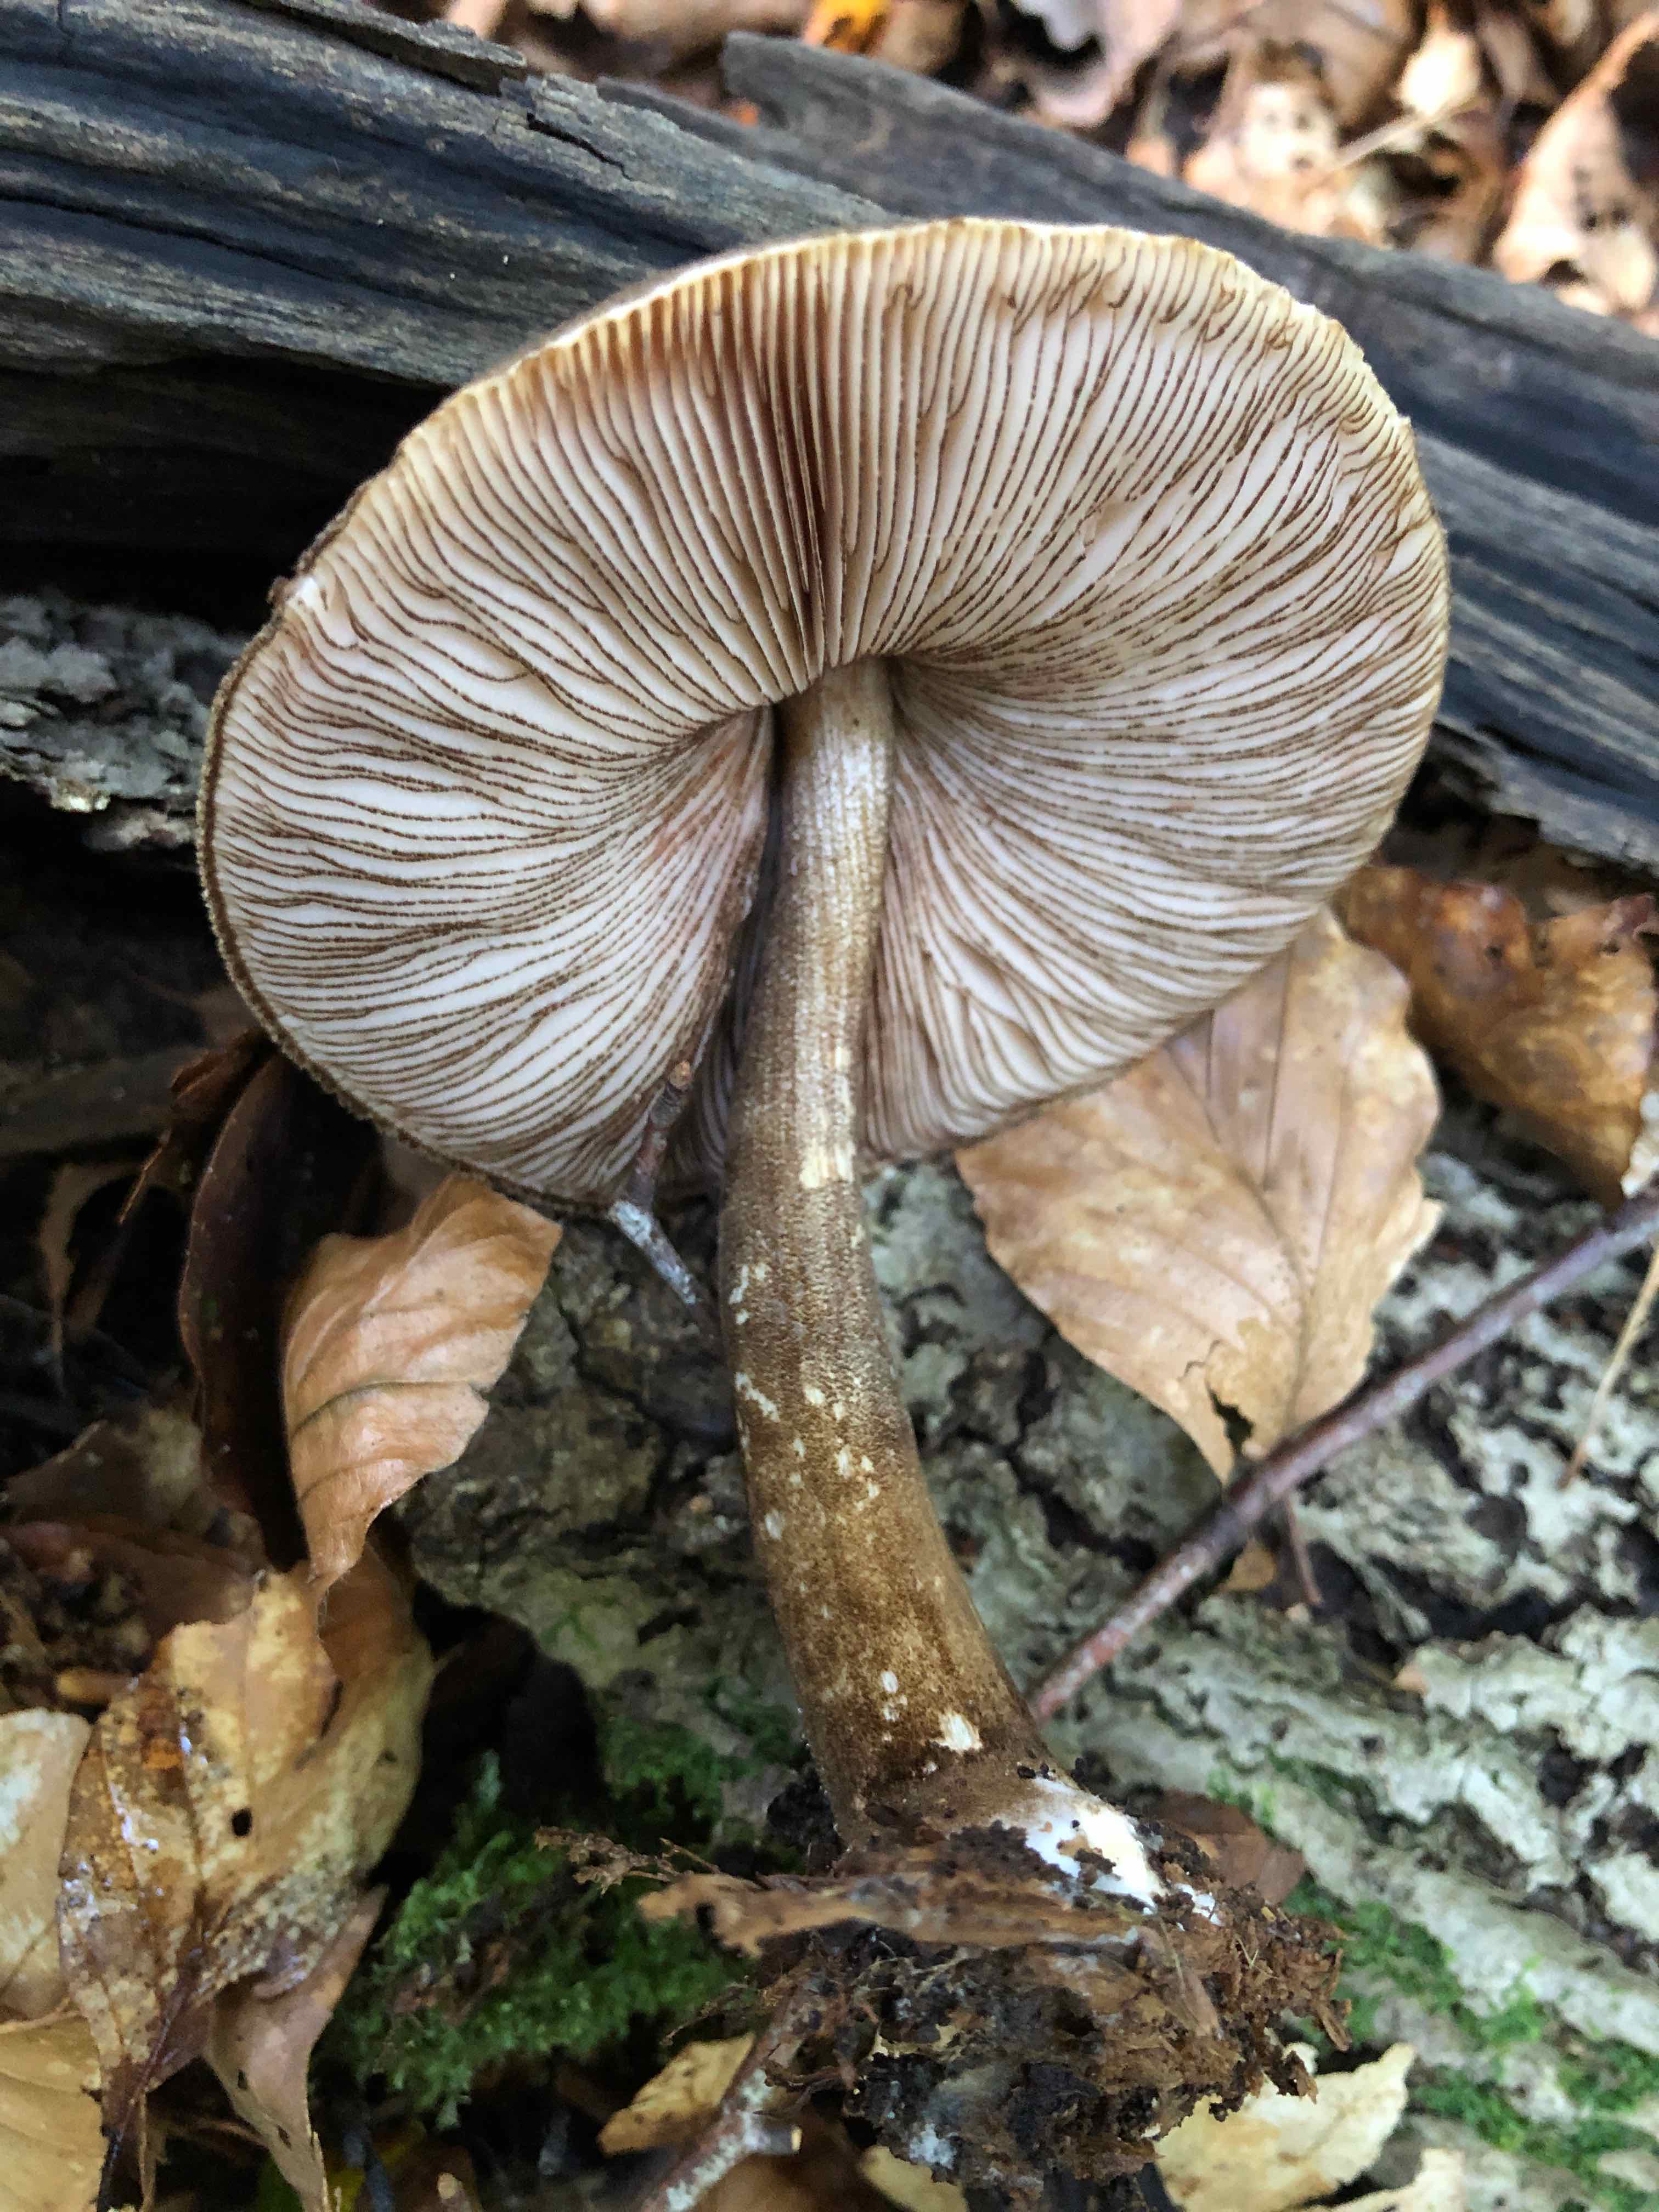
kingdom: Fungi
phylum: Basidiomycota
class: Agaricomycetes
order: Agaricales
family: Pluteaceae
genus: Pluteus
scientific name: Pluteus umbrosus
